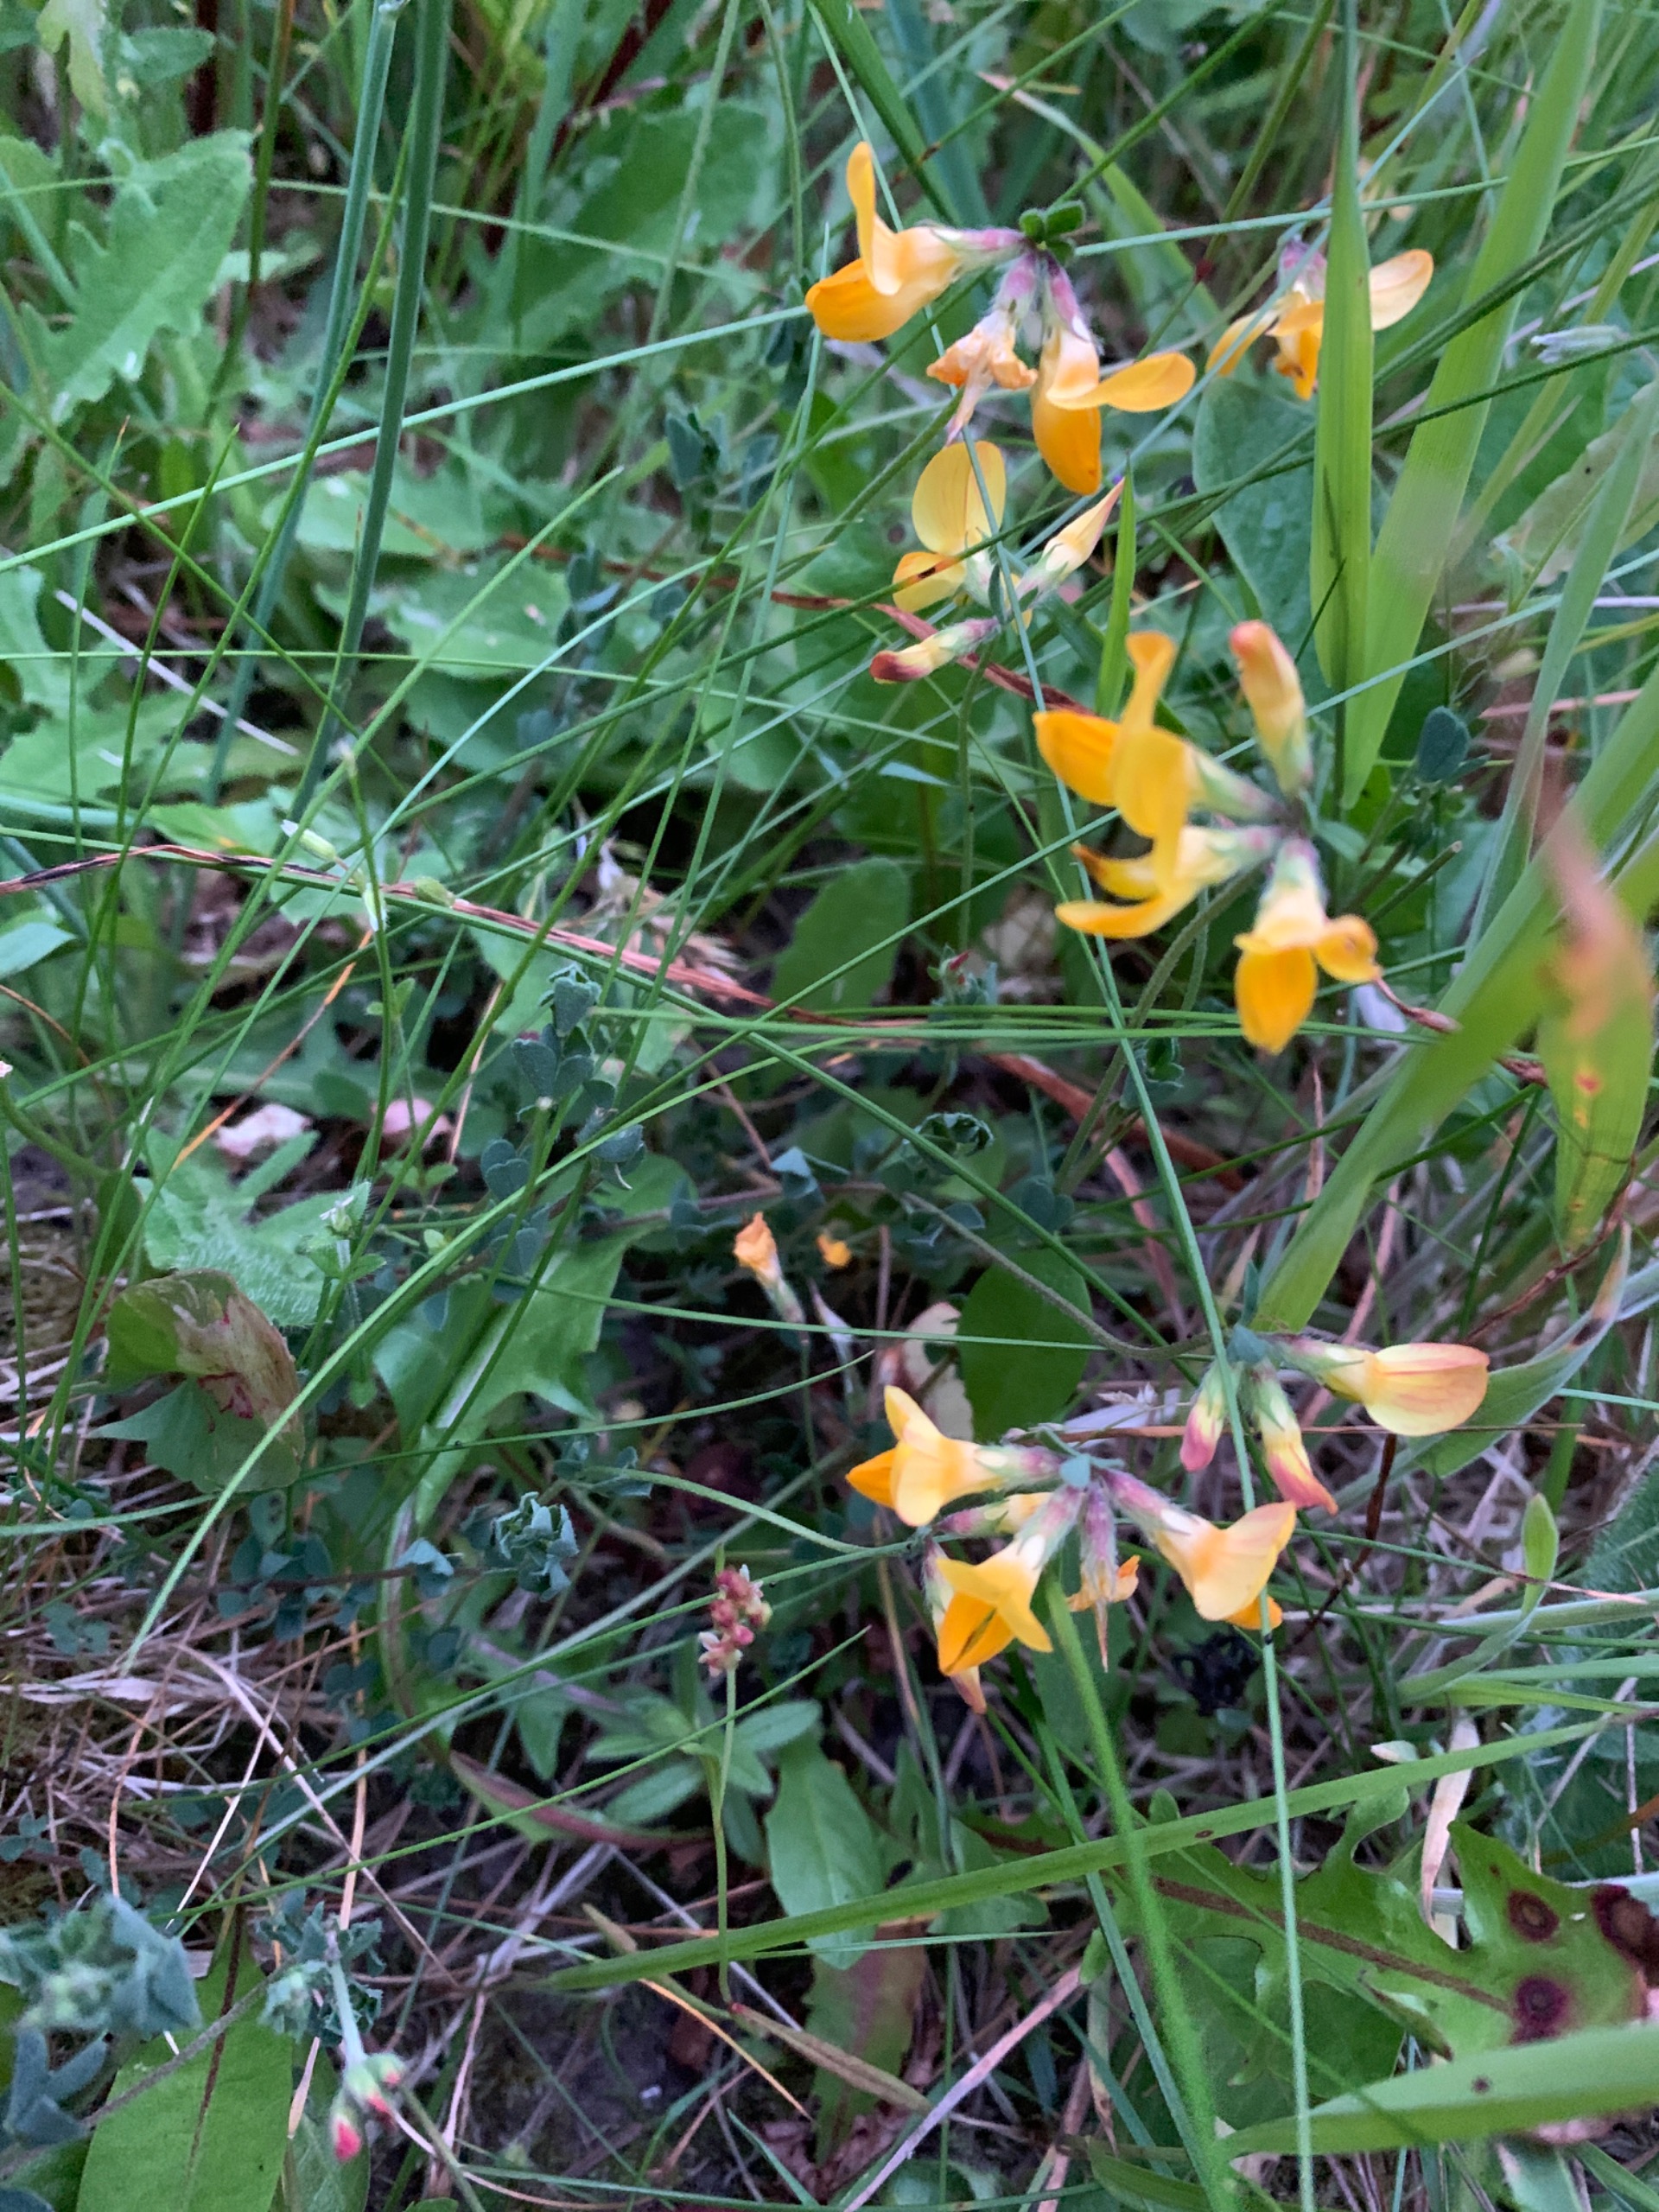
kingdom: Plantae
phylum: Tracheophyta
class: Magnoliopsida
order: Fabales
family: Fabaceae
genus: Lotus
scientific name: Lotus corniculatus
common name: Almindelig kællingetand
